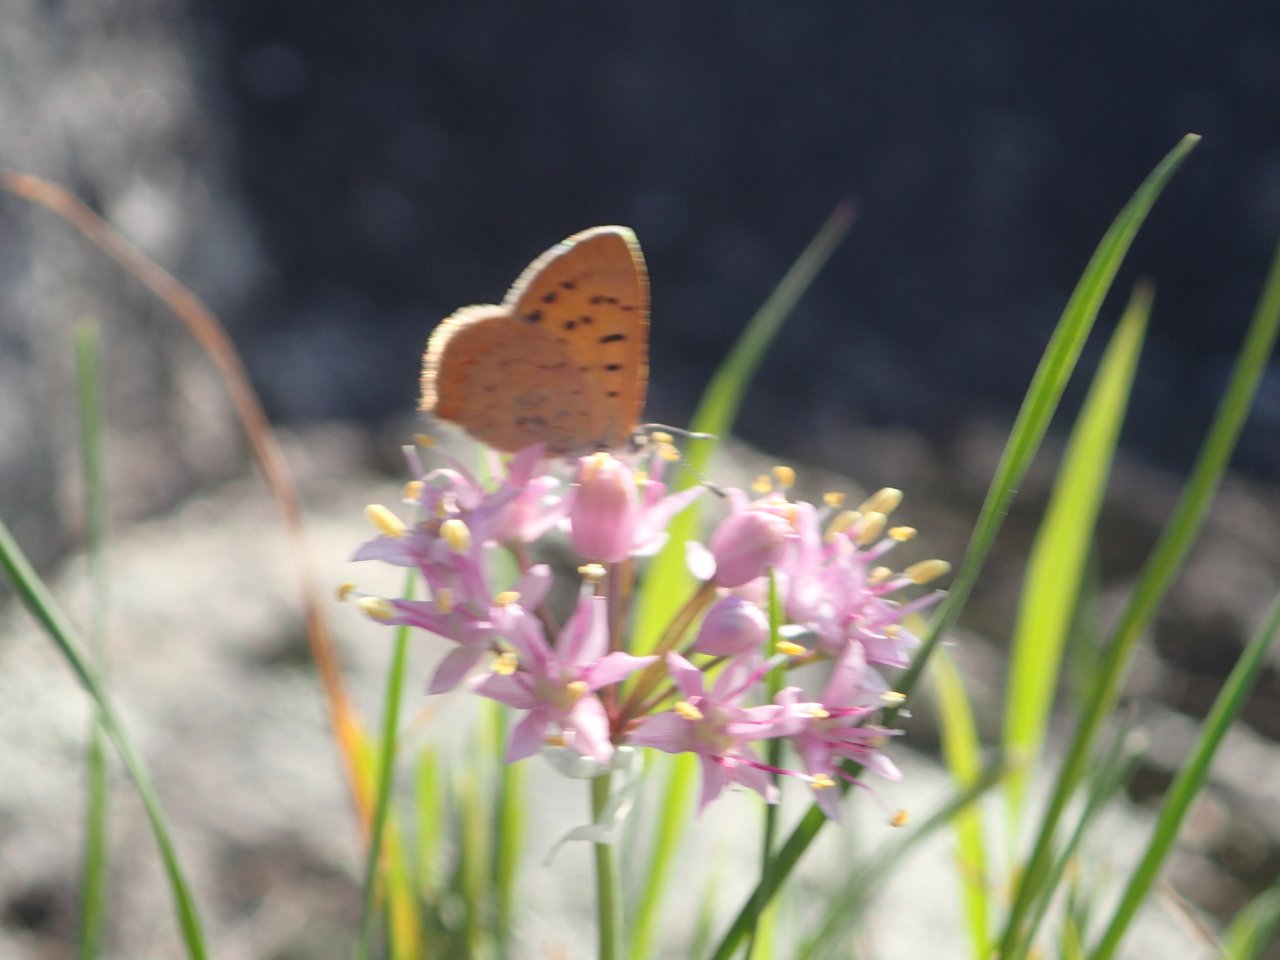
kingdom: Animalia
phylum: Arthropoda
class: Insecta
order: Lepidoptera
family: Lycaenidae
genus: Epidemia
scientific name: Epidemia dorcas
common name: Dorcas Copper
